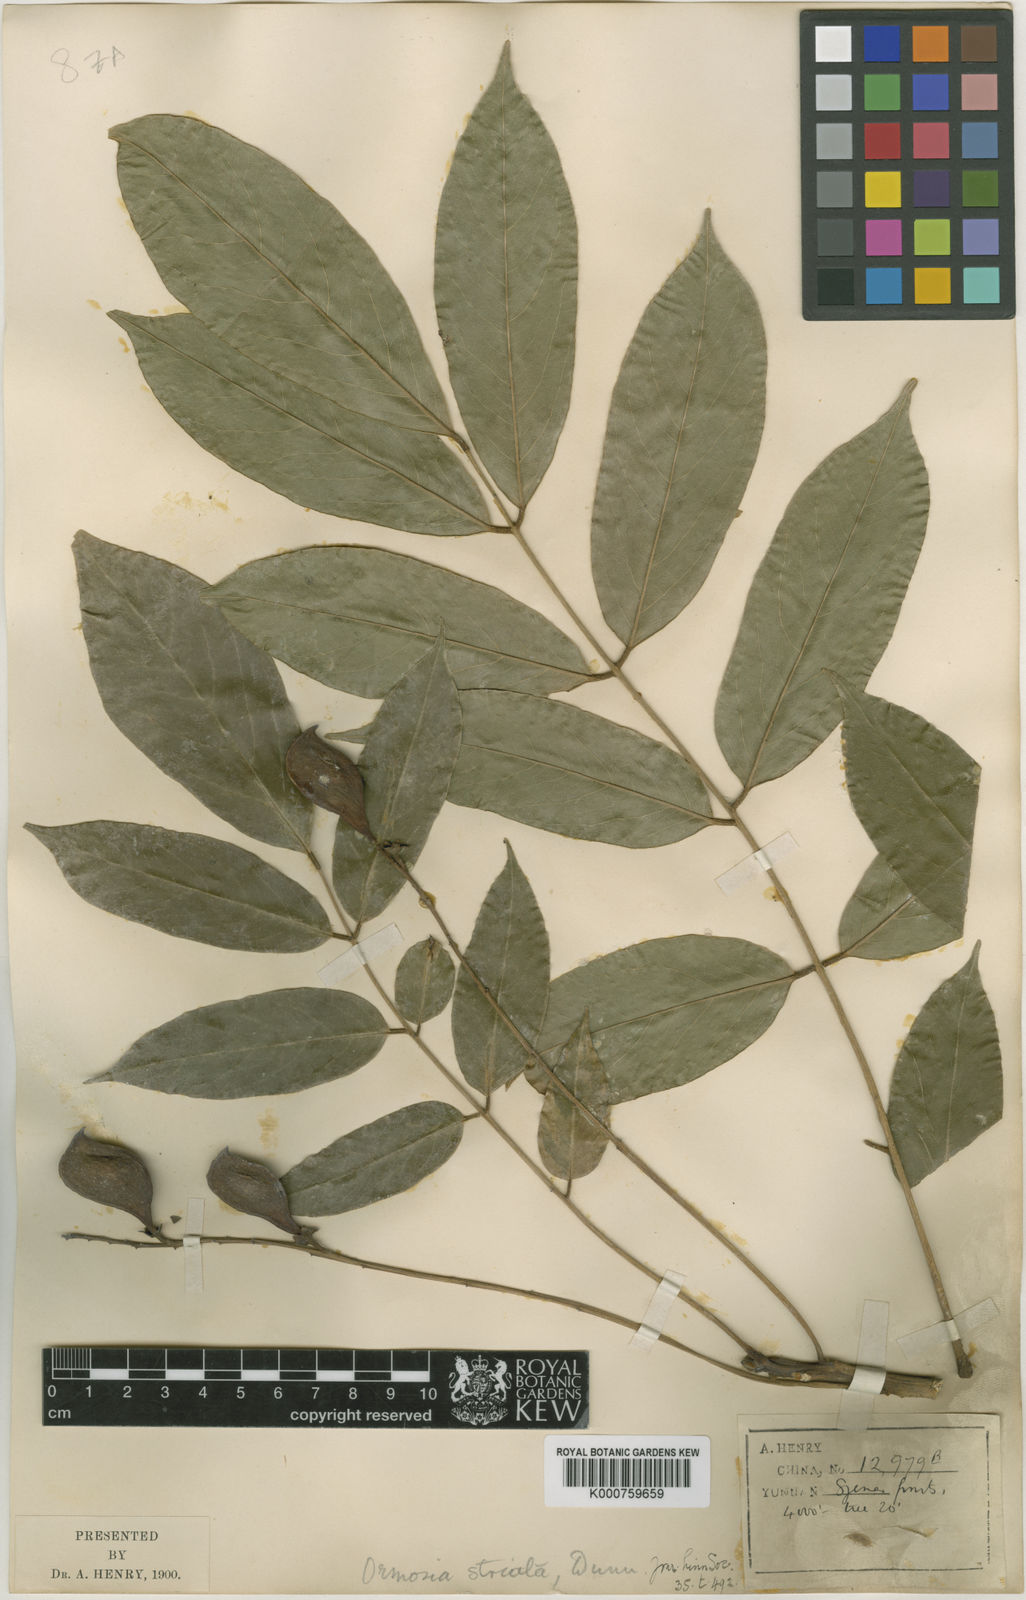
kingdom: Plantae
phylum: Tracheophyta
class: Magnoliopsida
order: Fabales
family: Fabaceae
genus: Ormosia
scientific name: Ormosia striata
